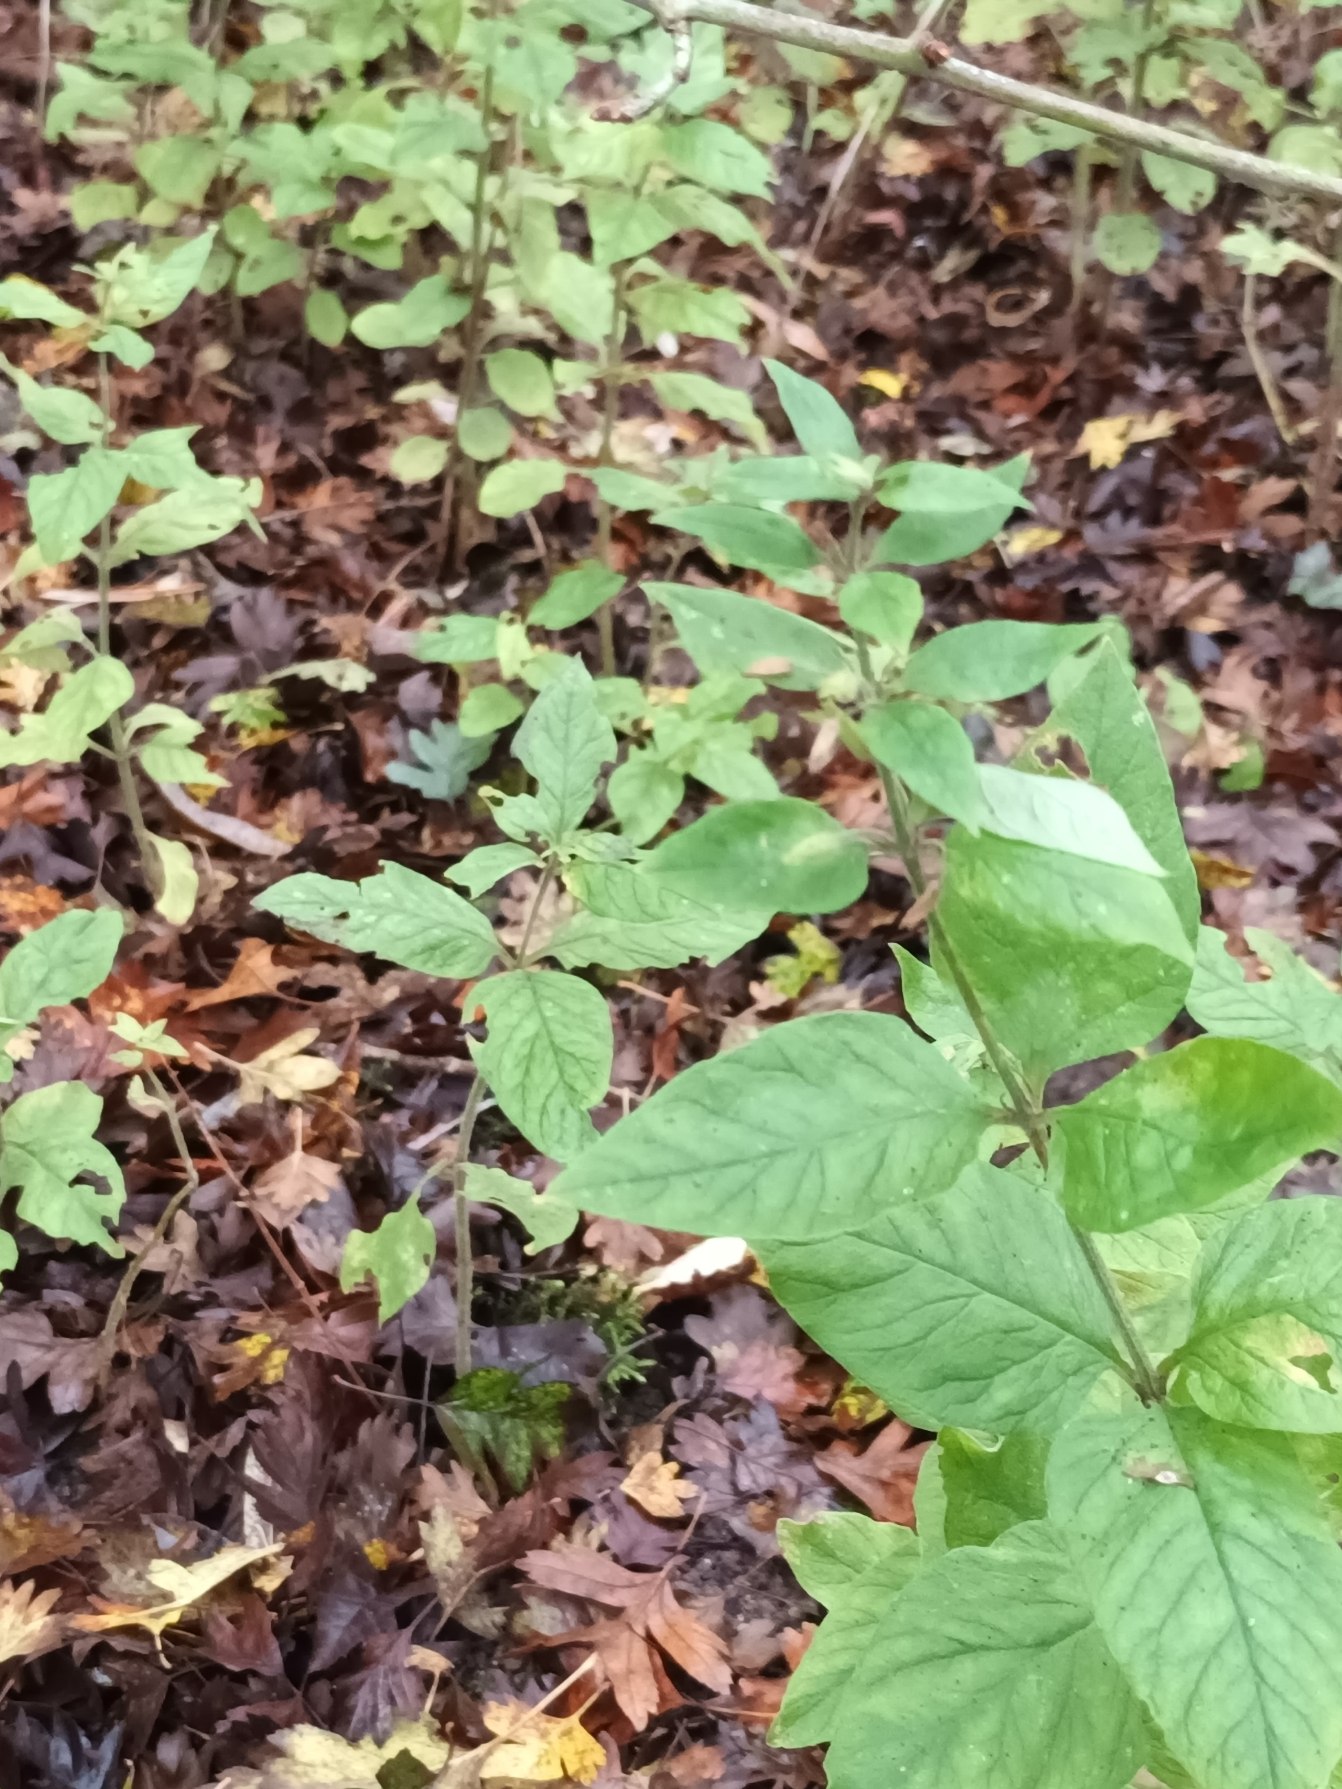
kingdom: Plantae
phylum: Tracheophyta
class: Magnoliopsida
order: Ericales
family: Primulaceae
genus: Lysimachia
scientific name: Lysimachia punctata
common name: Prikbladet fredløs
